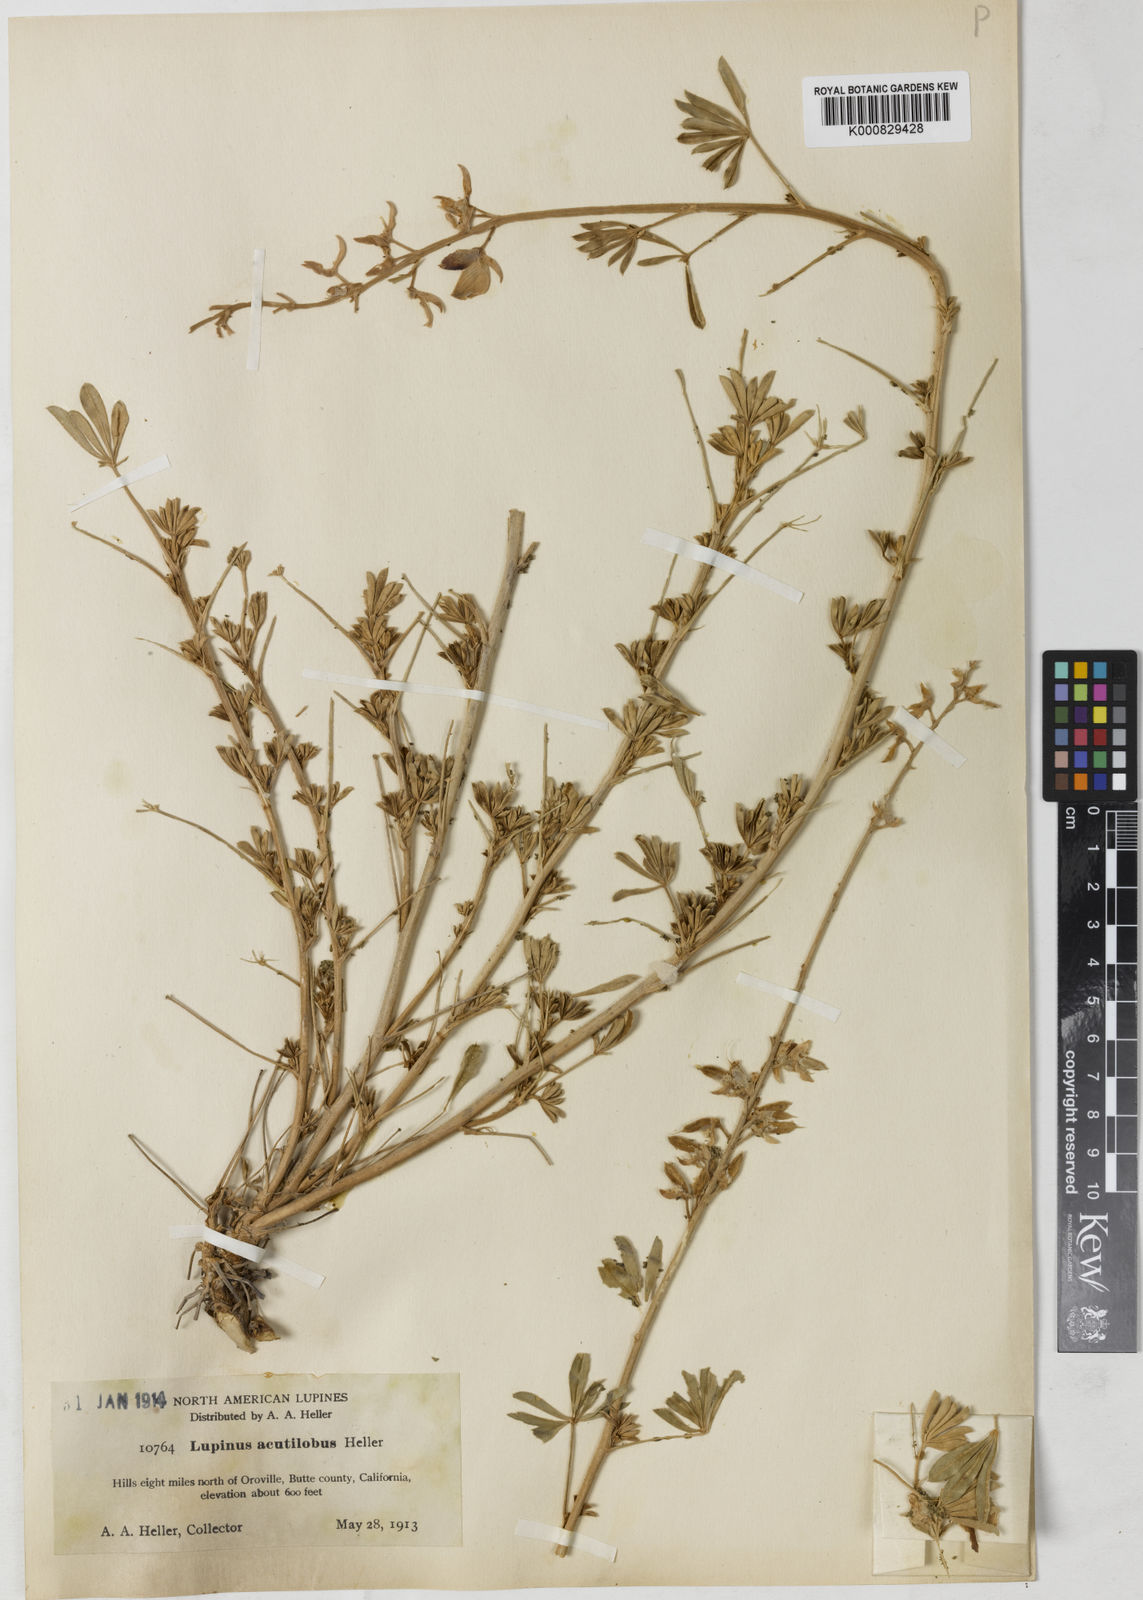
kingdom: Plantae
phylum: Tracheophyta
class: Magnoliopsida
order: Fabales
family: Fabaceae
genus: Lupinus
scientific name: Lupinus albifrons
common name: Foothill lupine
